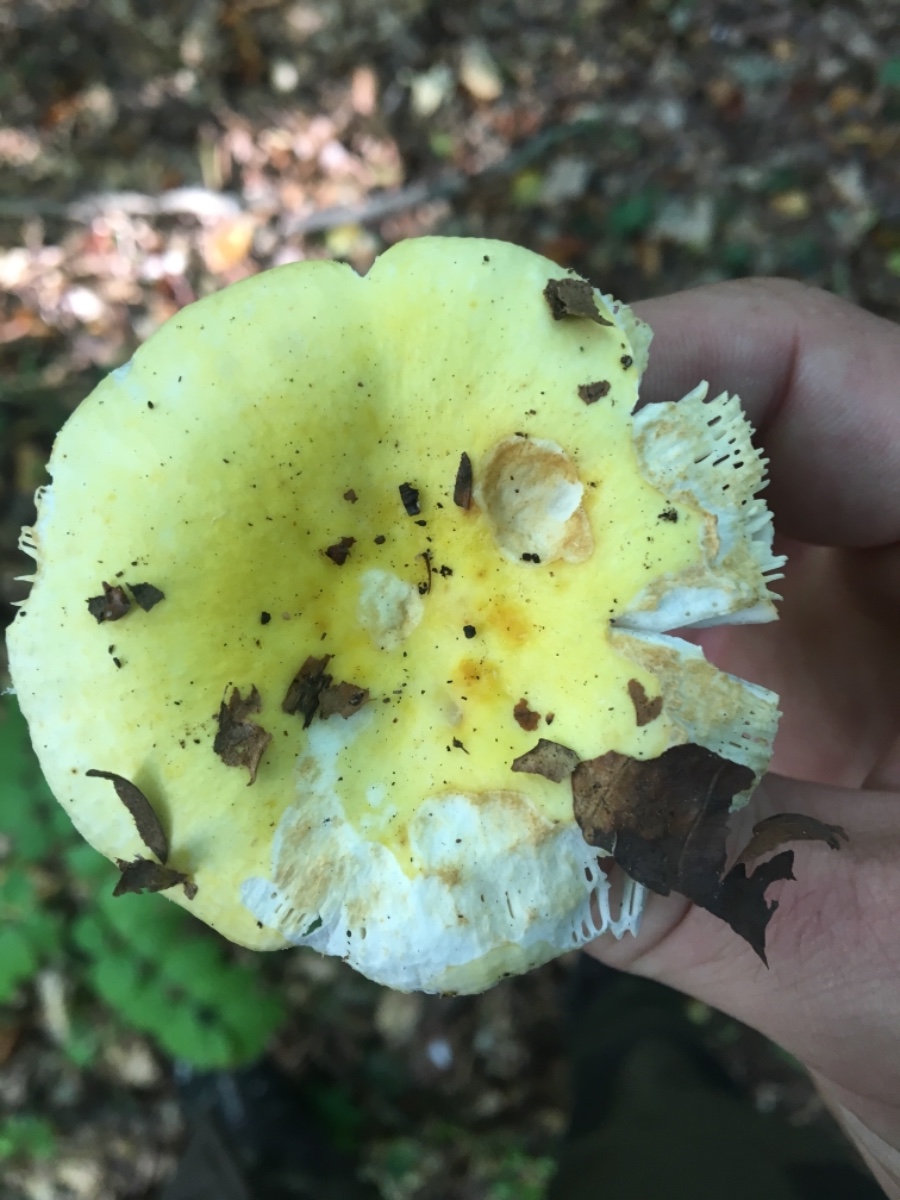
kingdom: Fungi
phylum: Basidiomycota
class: Agaricomycetes
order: Russulales
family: Russulaceae
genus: Russula
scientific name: Russula
